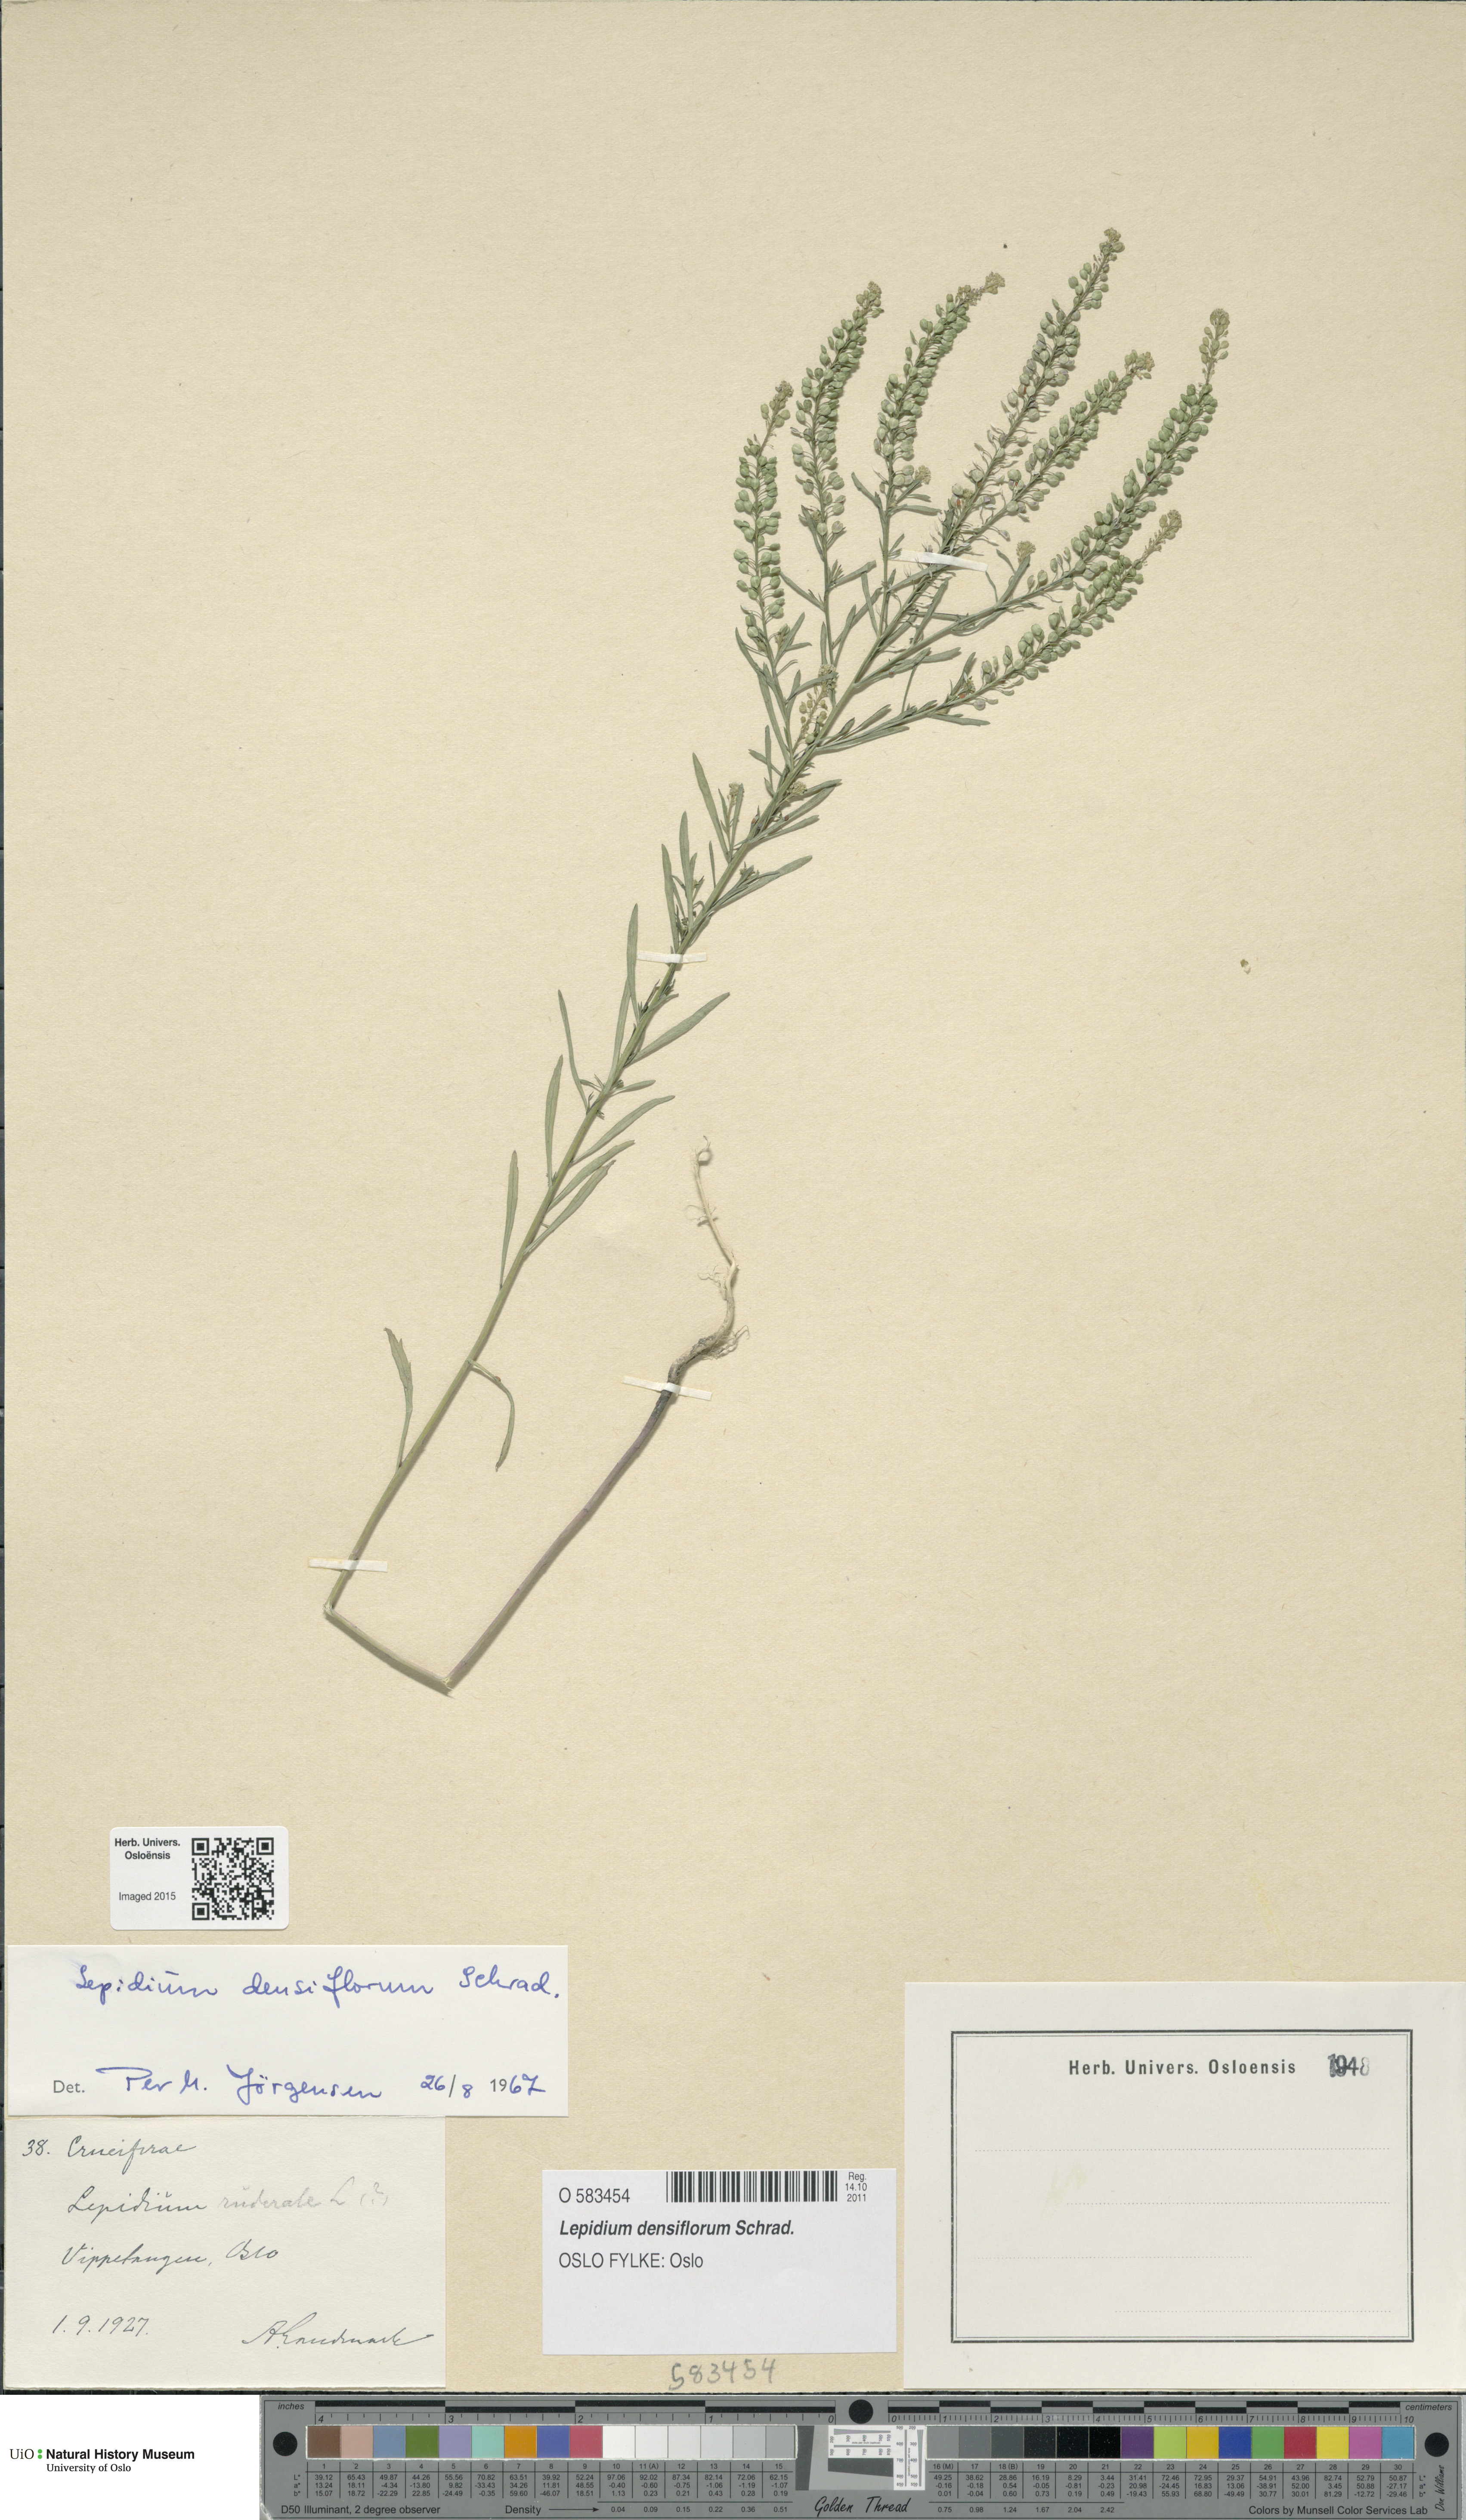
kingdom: Plantae
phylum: Tracheophyta
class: Magnoliopsida
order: Brassicales
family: Brassicaceae
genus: Lepidium
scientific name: Lepidium densiflorum
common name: Miner's pepperwort
